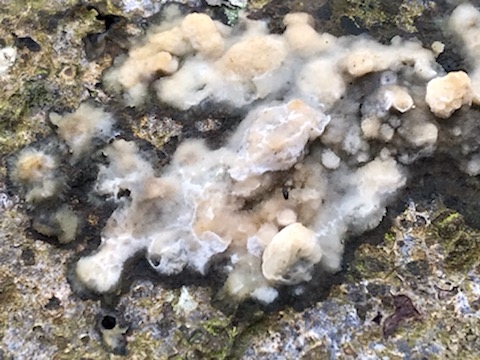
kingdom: Fungi
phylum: Basidiomycota
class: Agaricomycetes
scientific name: Agaricomycetes
